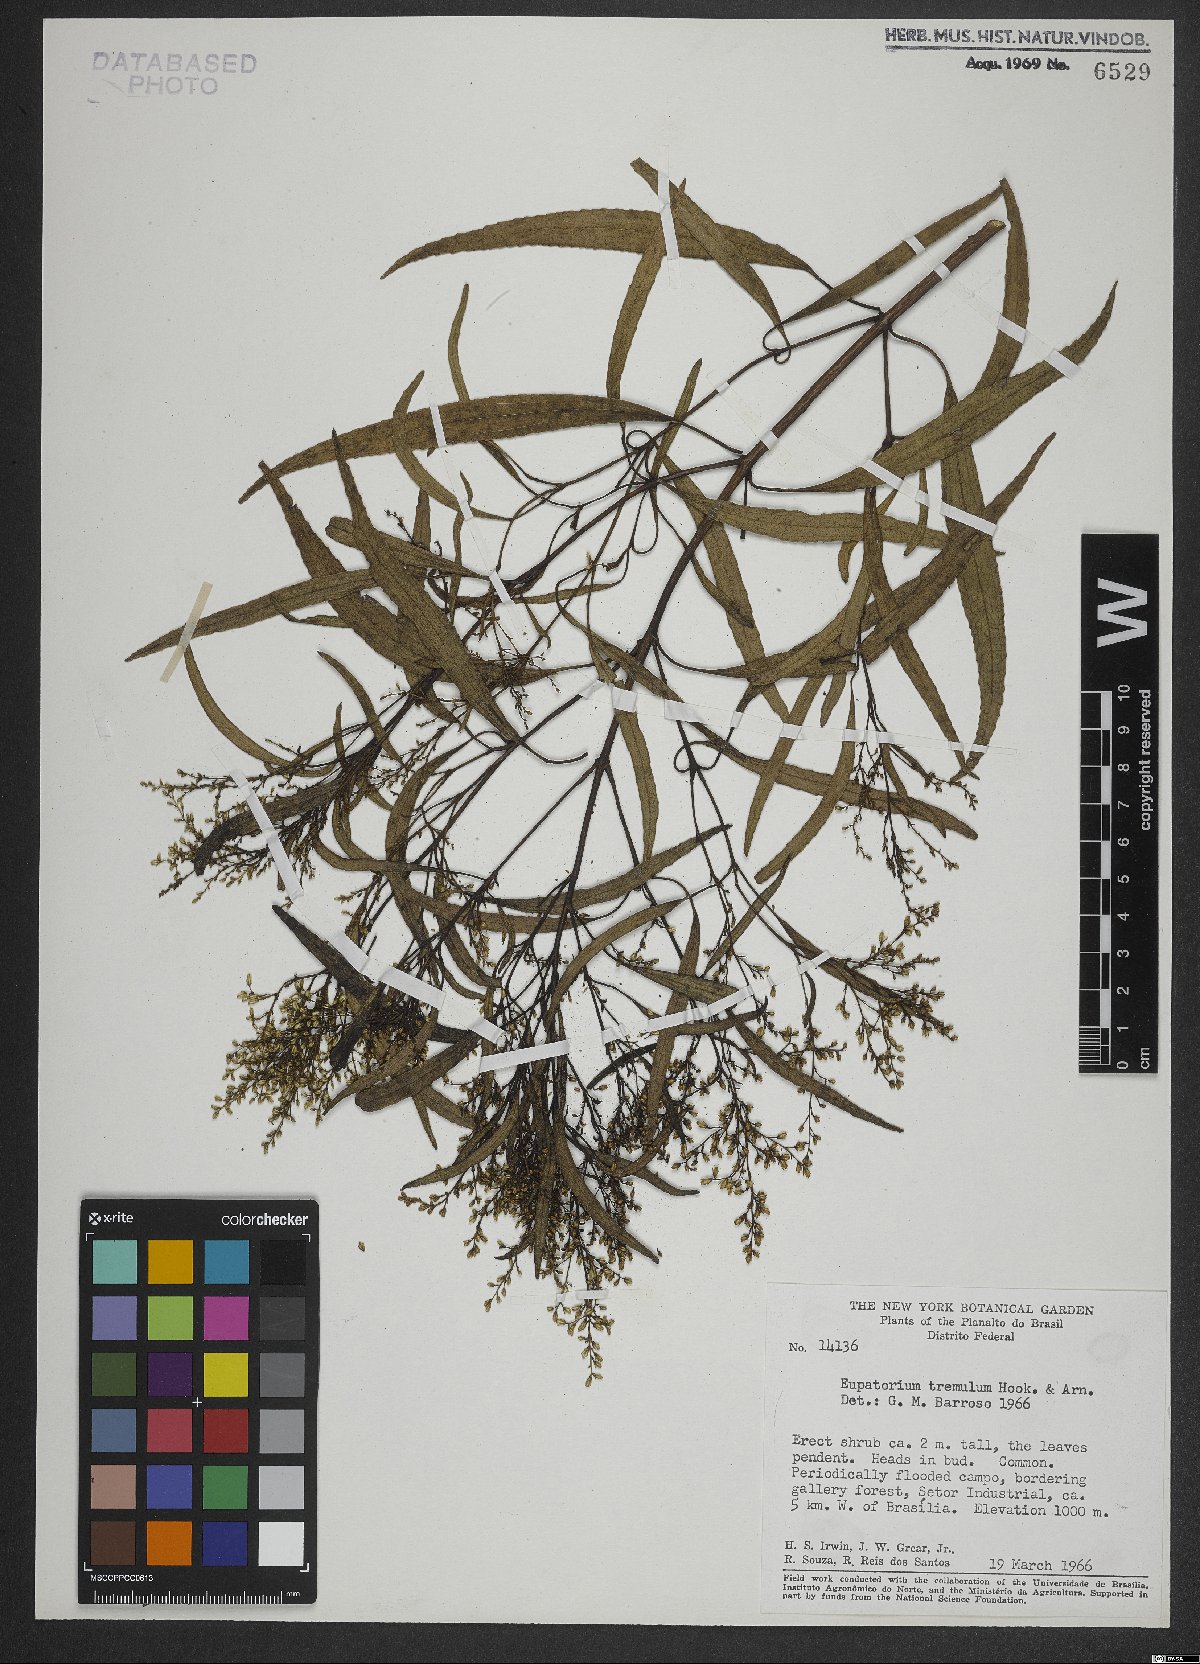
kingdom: Plantae
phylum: Tracheophyta
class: Magnoliopsida
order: Asterales
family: Asteraceae
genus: Raulinoreitzia
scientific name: Raulinoreitzia tremula
